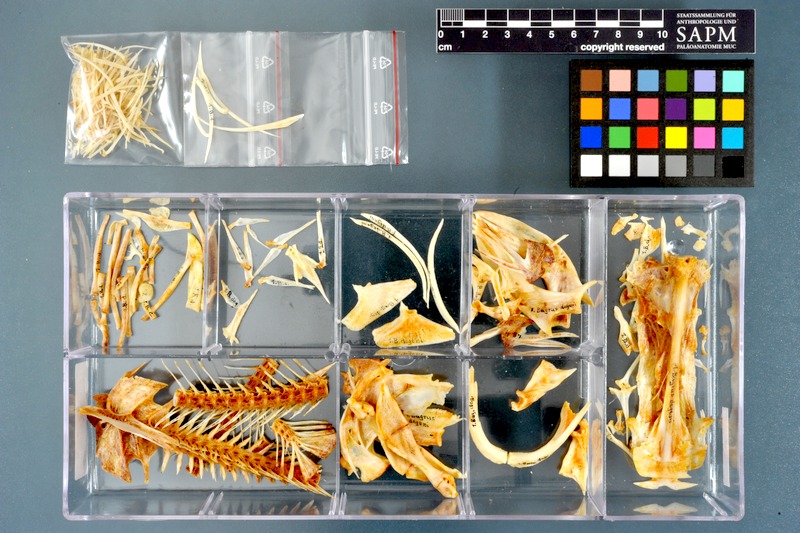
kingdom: Animalia
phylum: Chordata
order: Siluriformes
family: Bagridae
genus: Bagrus
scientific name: Bagrus degeni
